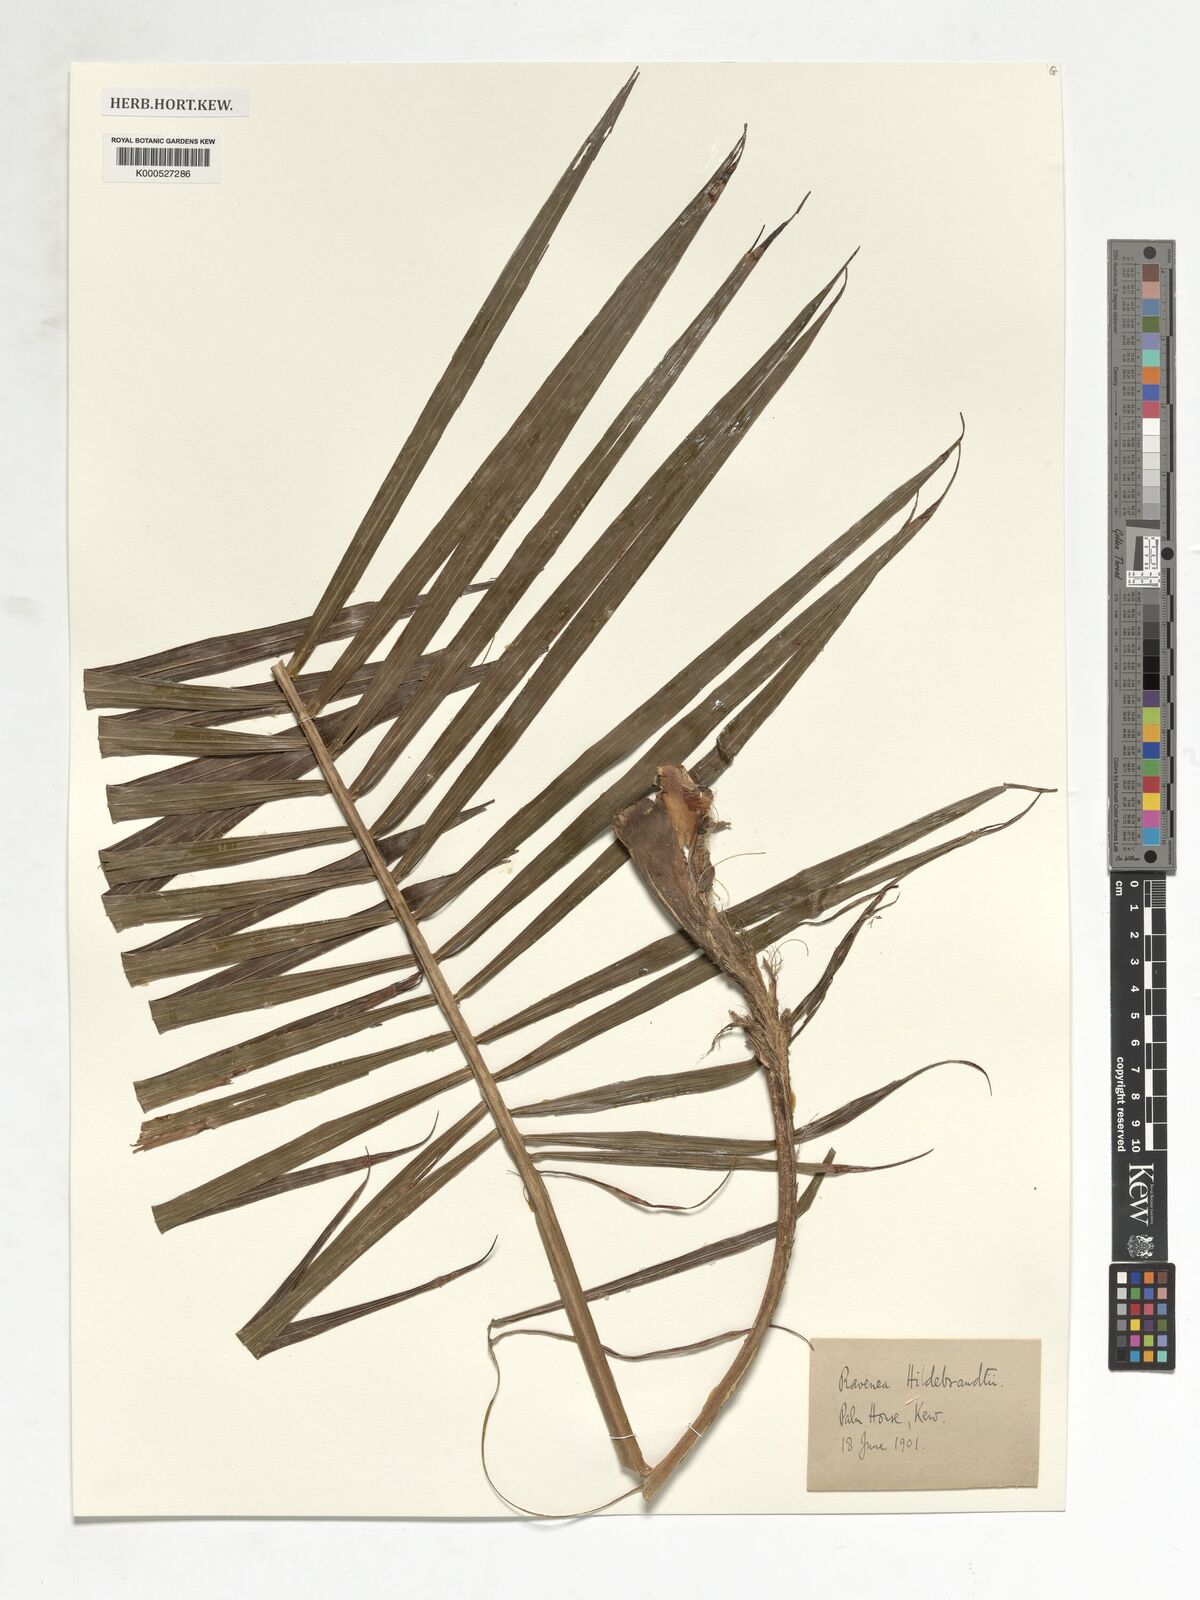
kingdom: Plantae
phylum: Tracheophyta
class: Liliopsida
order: Arecales
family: Arecaceae
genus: Ravenea
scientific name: Ravenea hildebrandtii
